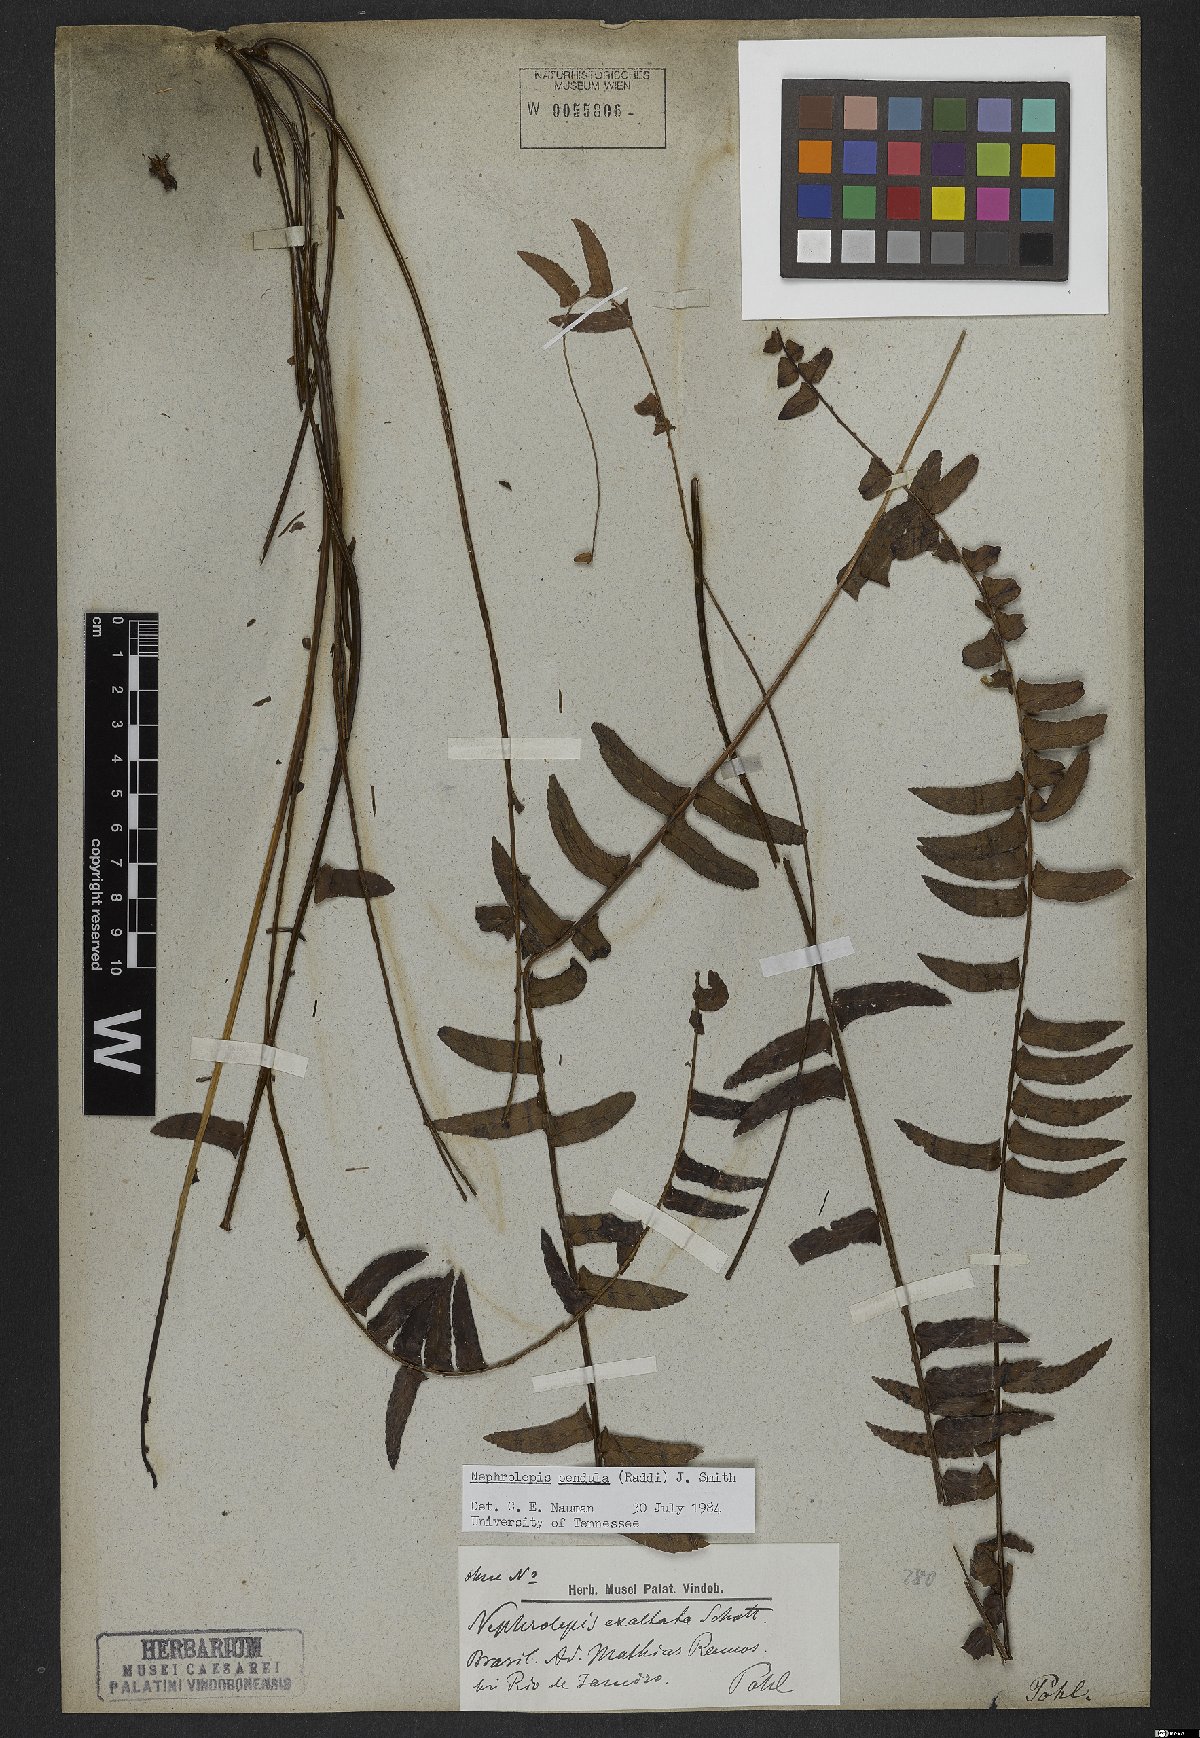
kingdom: Plantae
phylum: Tracheophyta
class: Polypodiopsida
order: Polypodiales
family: Nephrolepidaceae
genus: Nephrolepis
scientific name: Nephrolepis pendula
